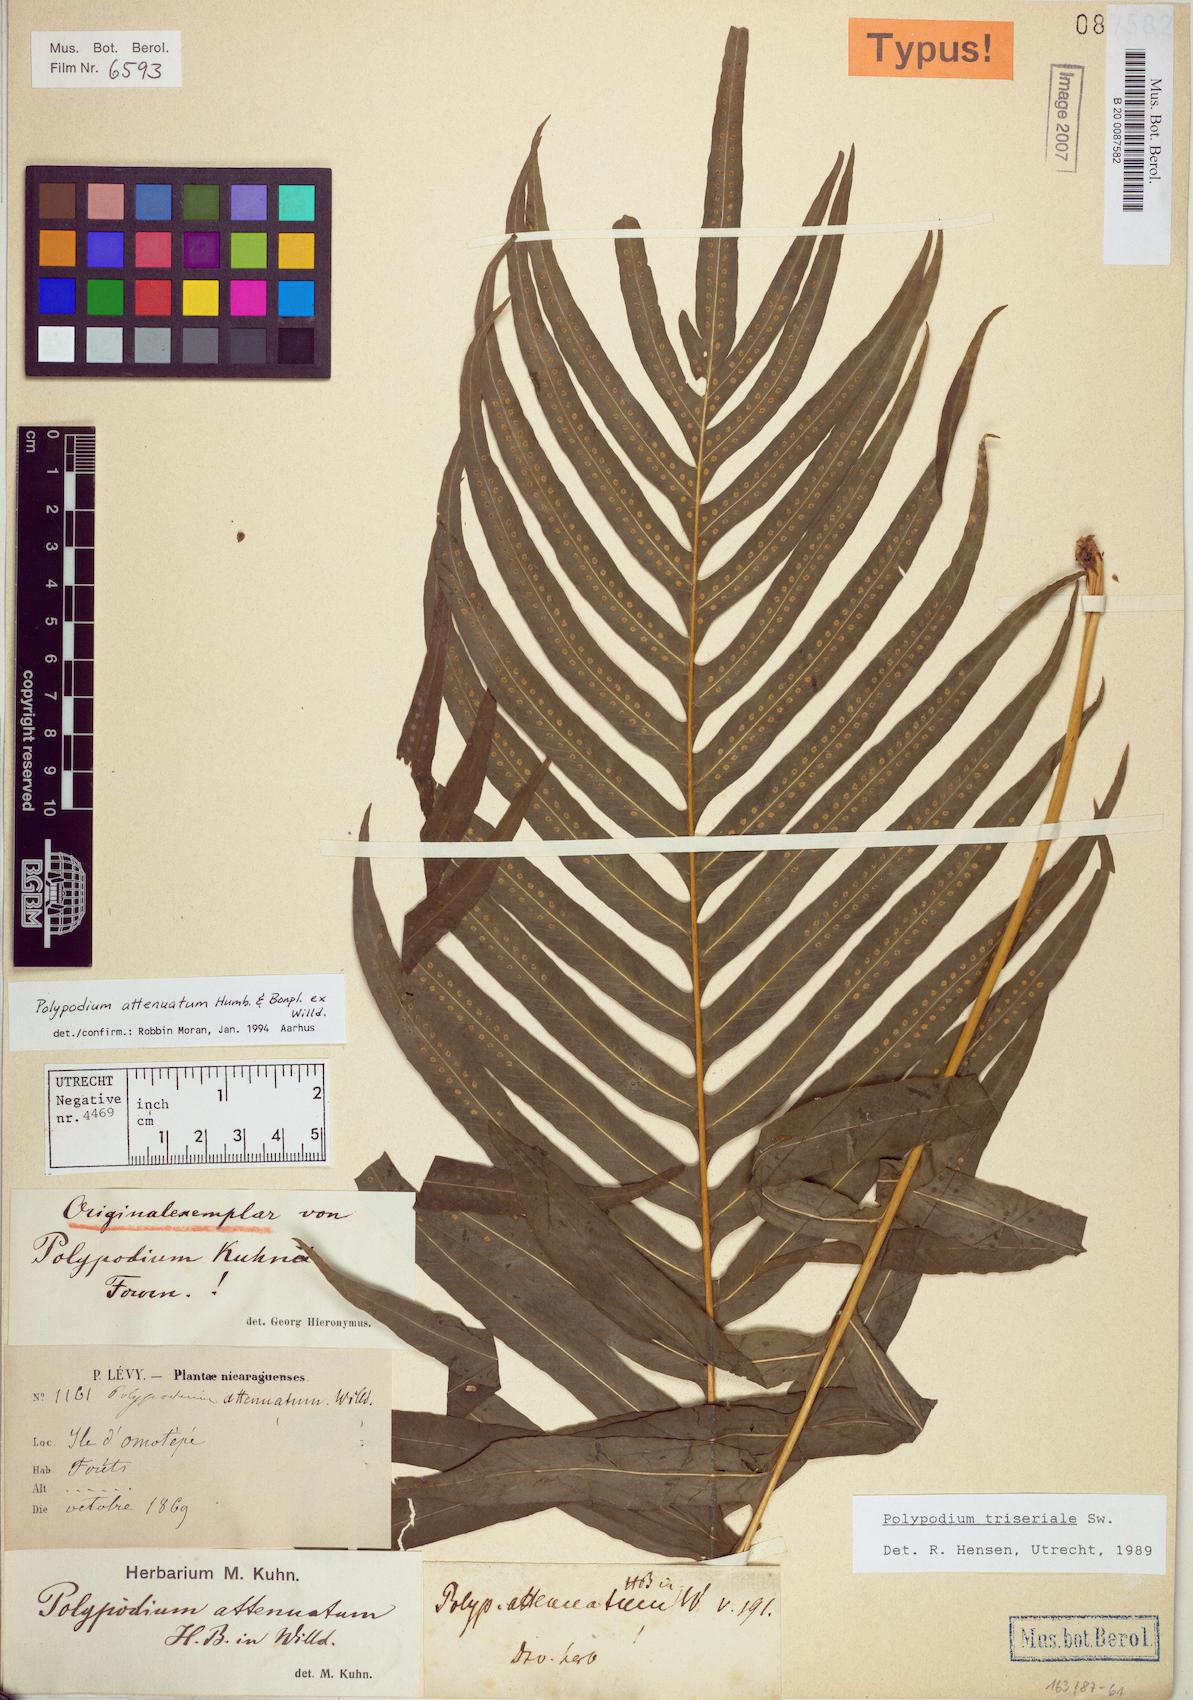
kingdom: Plantae
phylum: Tracheophyta
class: Polypodiopsida
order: Polypodiales
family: Polypodiaceae
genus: Serpocaulon
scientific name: Serpocaulon attenuatum
